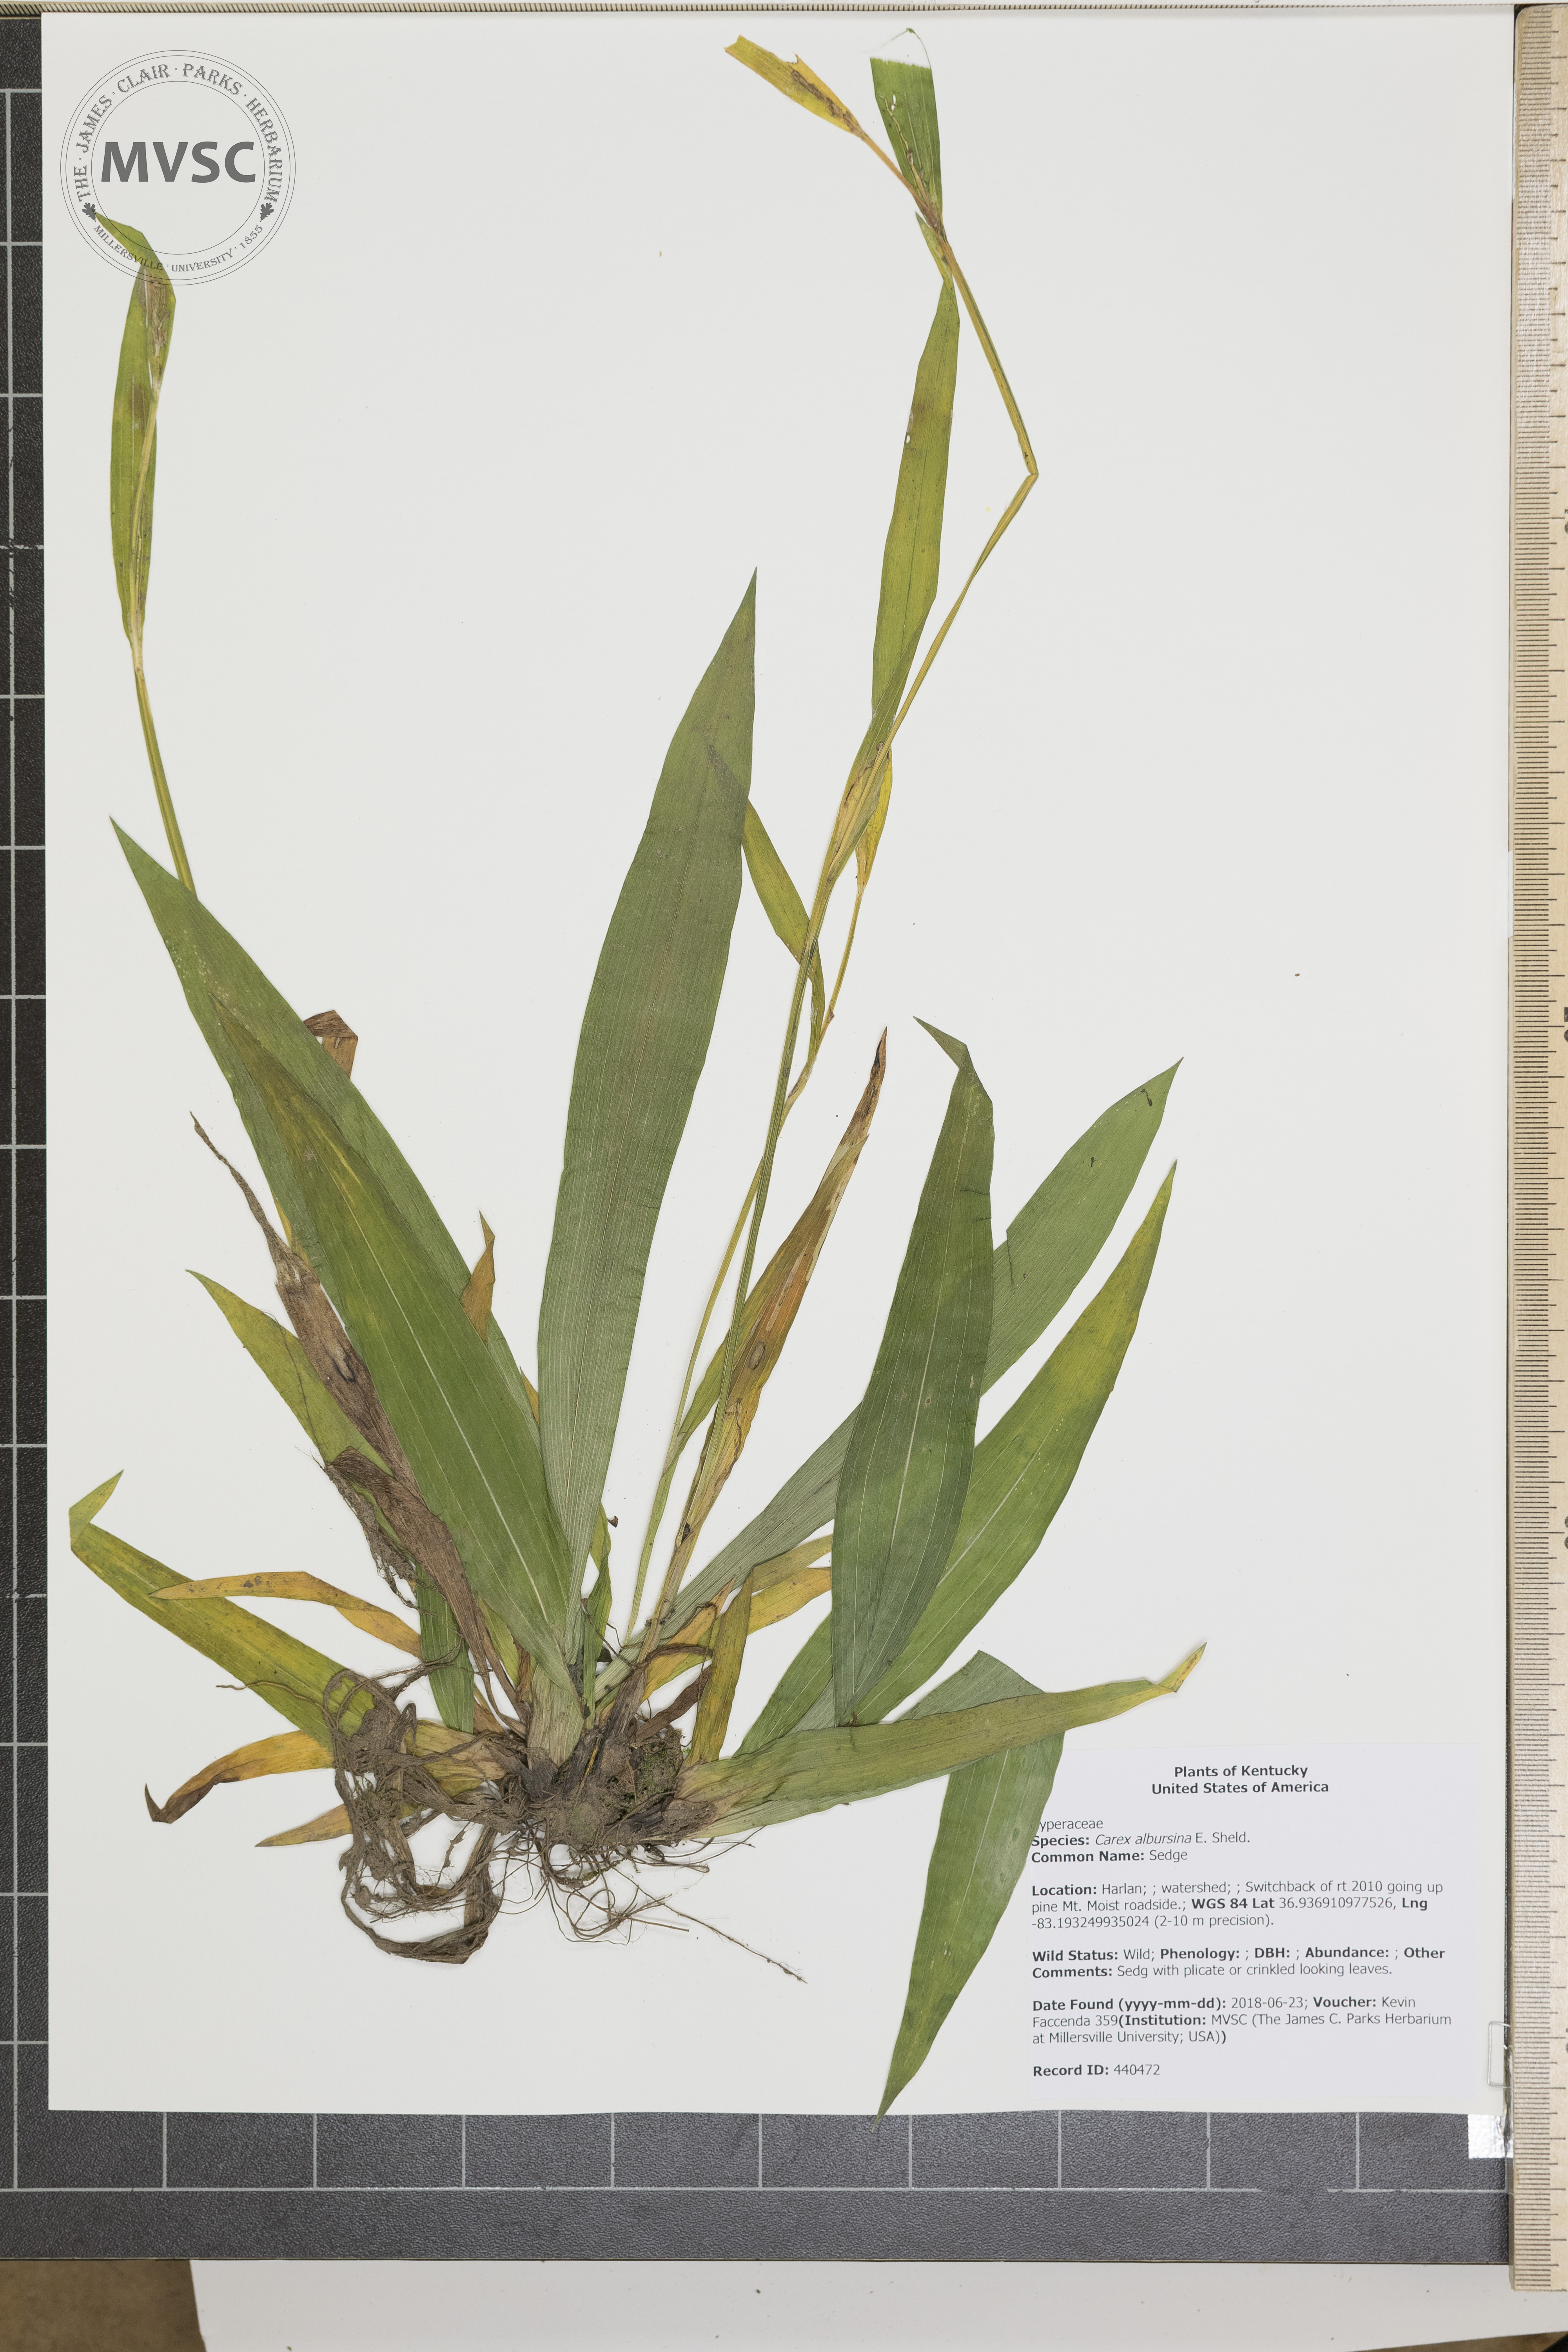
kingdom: Plantae
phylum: Tracheophyta
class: Liliopsida
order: Poales
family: Cyperaceae
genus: Carex
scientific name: Carex albursina
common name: Sedge
